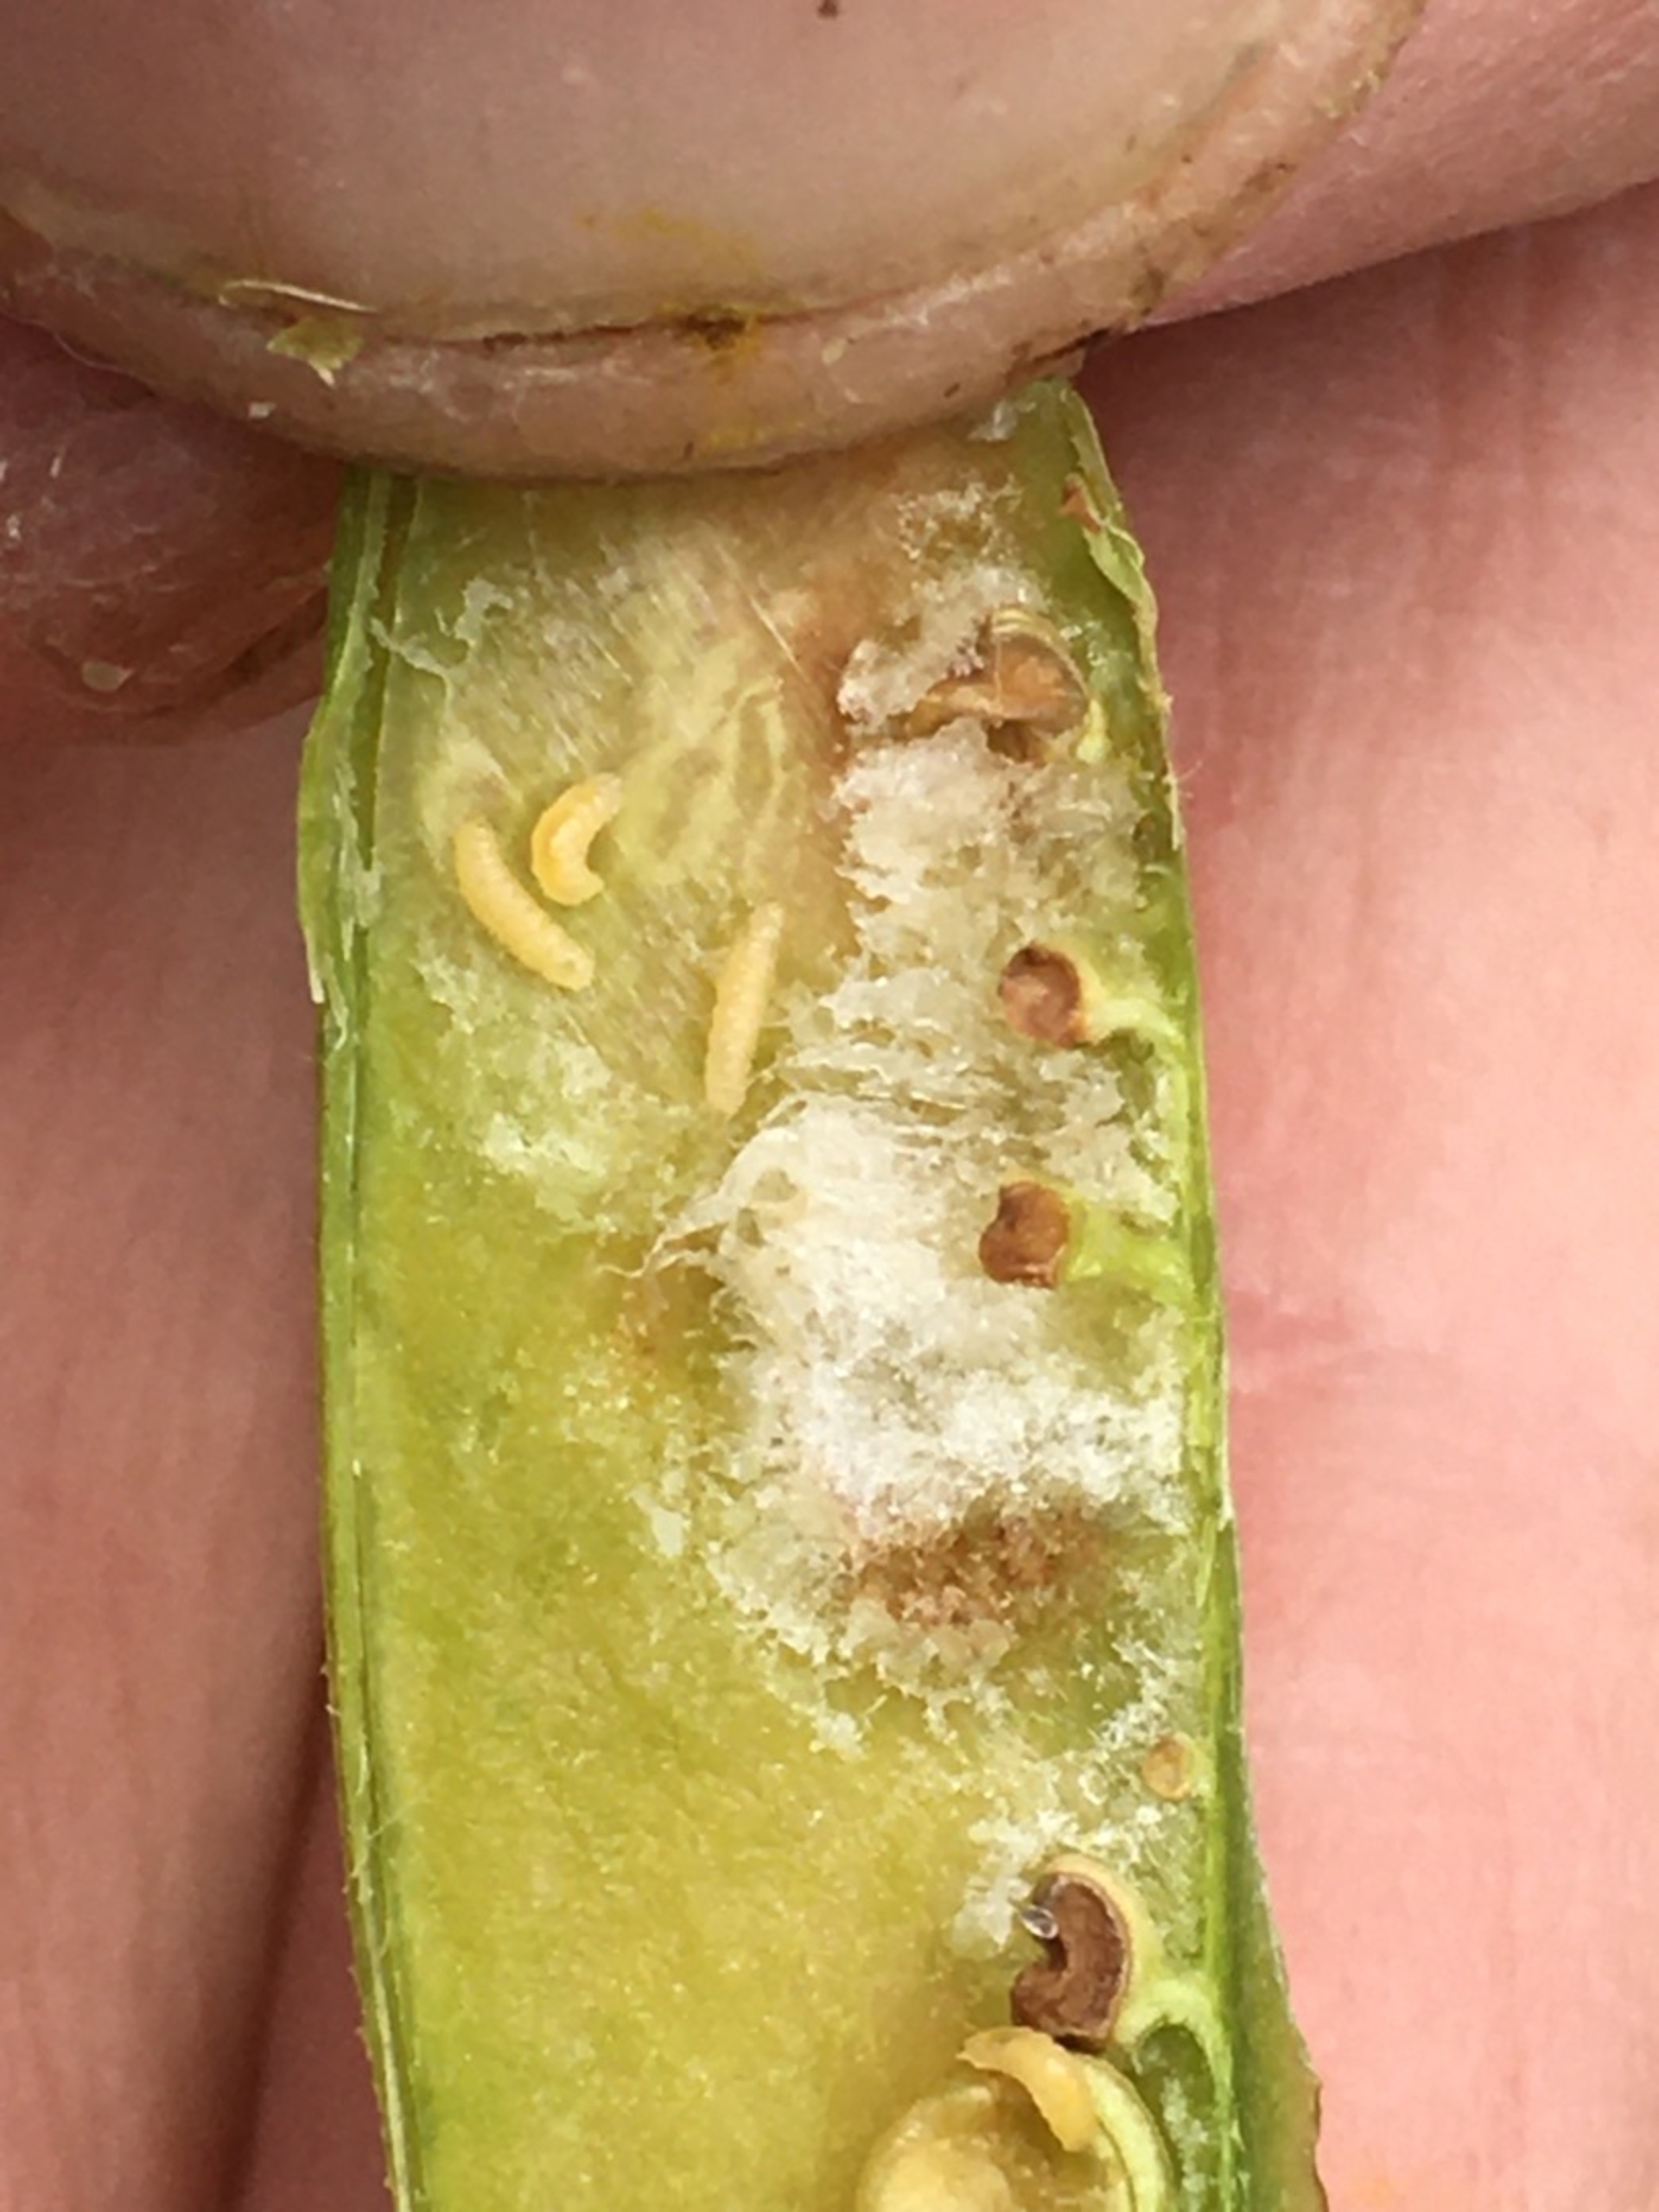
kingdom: Animalia
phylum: Arthropoda
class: Insecta
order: Diptera
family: Cecidomyiidae
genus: Contarinia
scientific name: Contarinia silvestris
